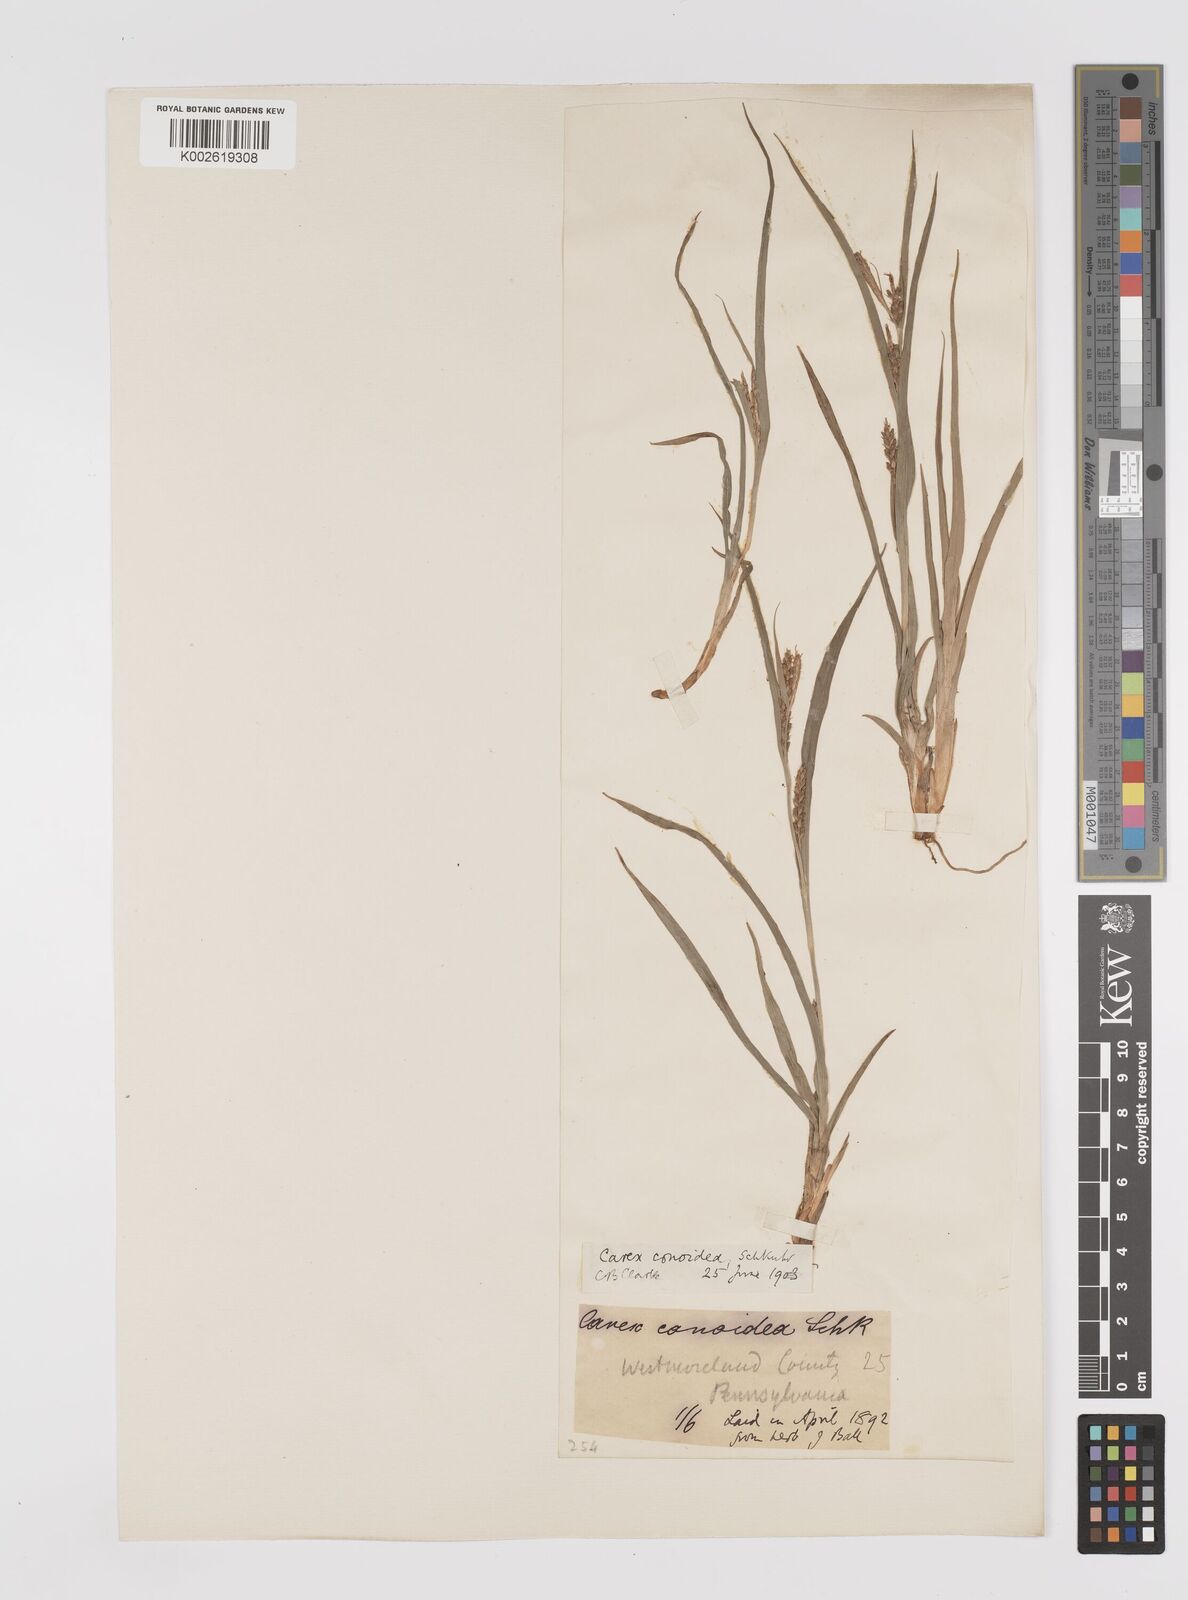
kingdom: Plantae
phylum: Tracheophyta
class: Liliopsida
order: Poales
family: Cyperaceae
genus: Carex
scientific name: Carex conoidea
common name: Cone shaped sedge
